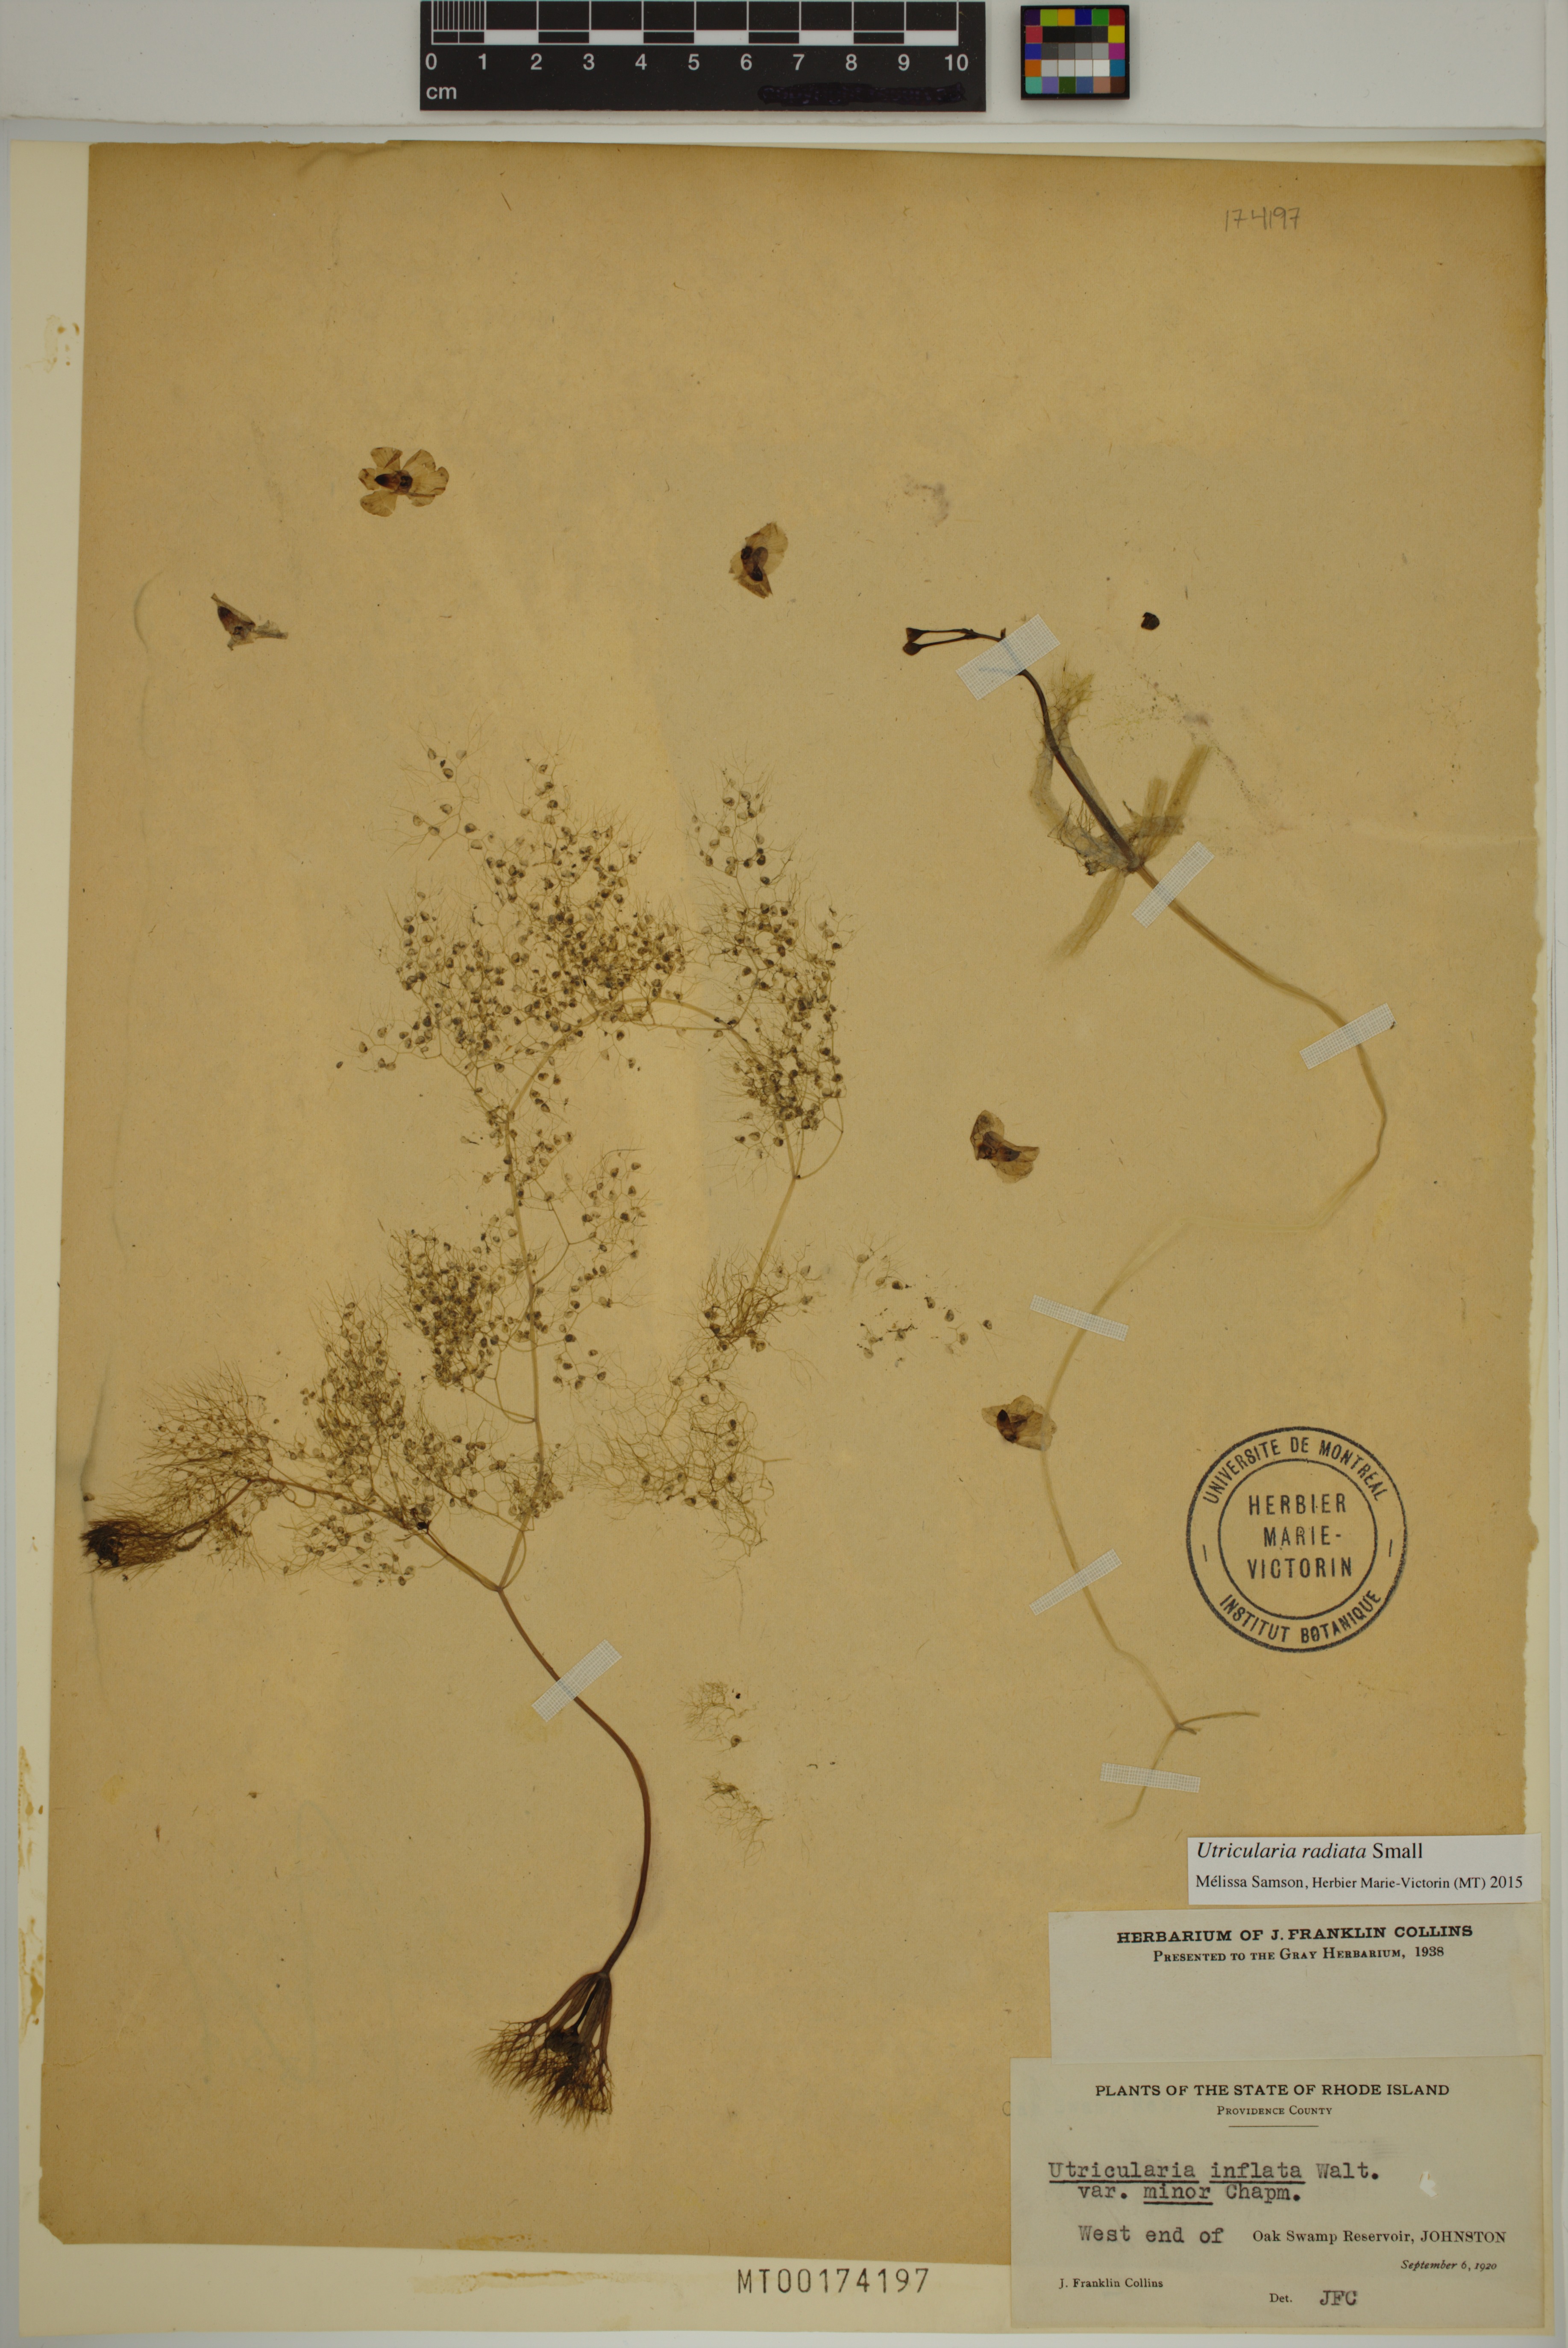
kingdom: Plantae
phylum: Tracheophyta
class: Magnoliopsida
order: Lamiales
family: Lentibulariaceae
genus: Utricularia
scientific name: Utricularia radiata
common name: Floating bladderwort
